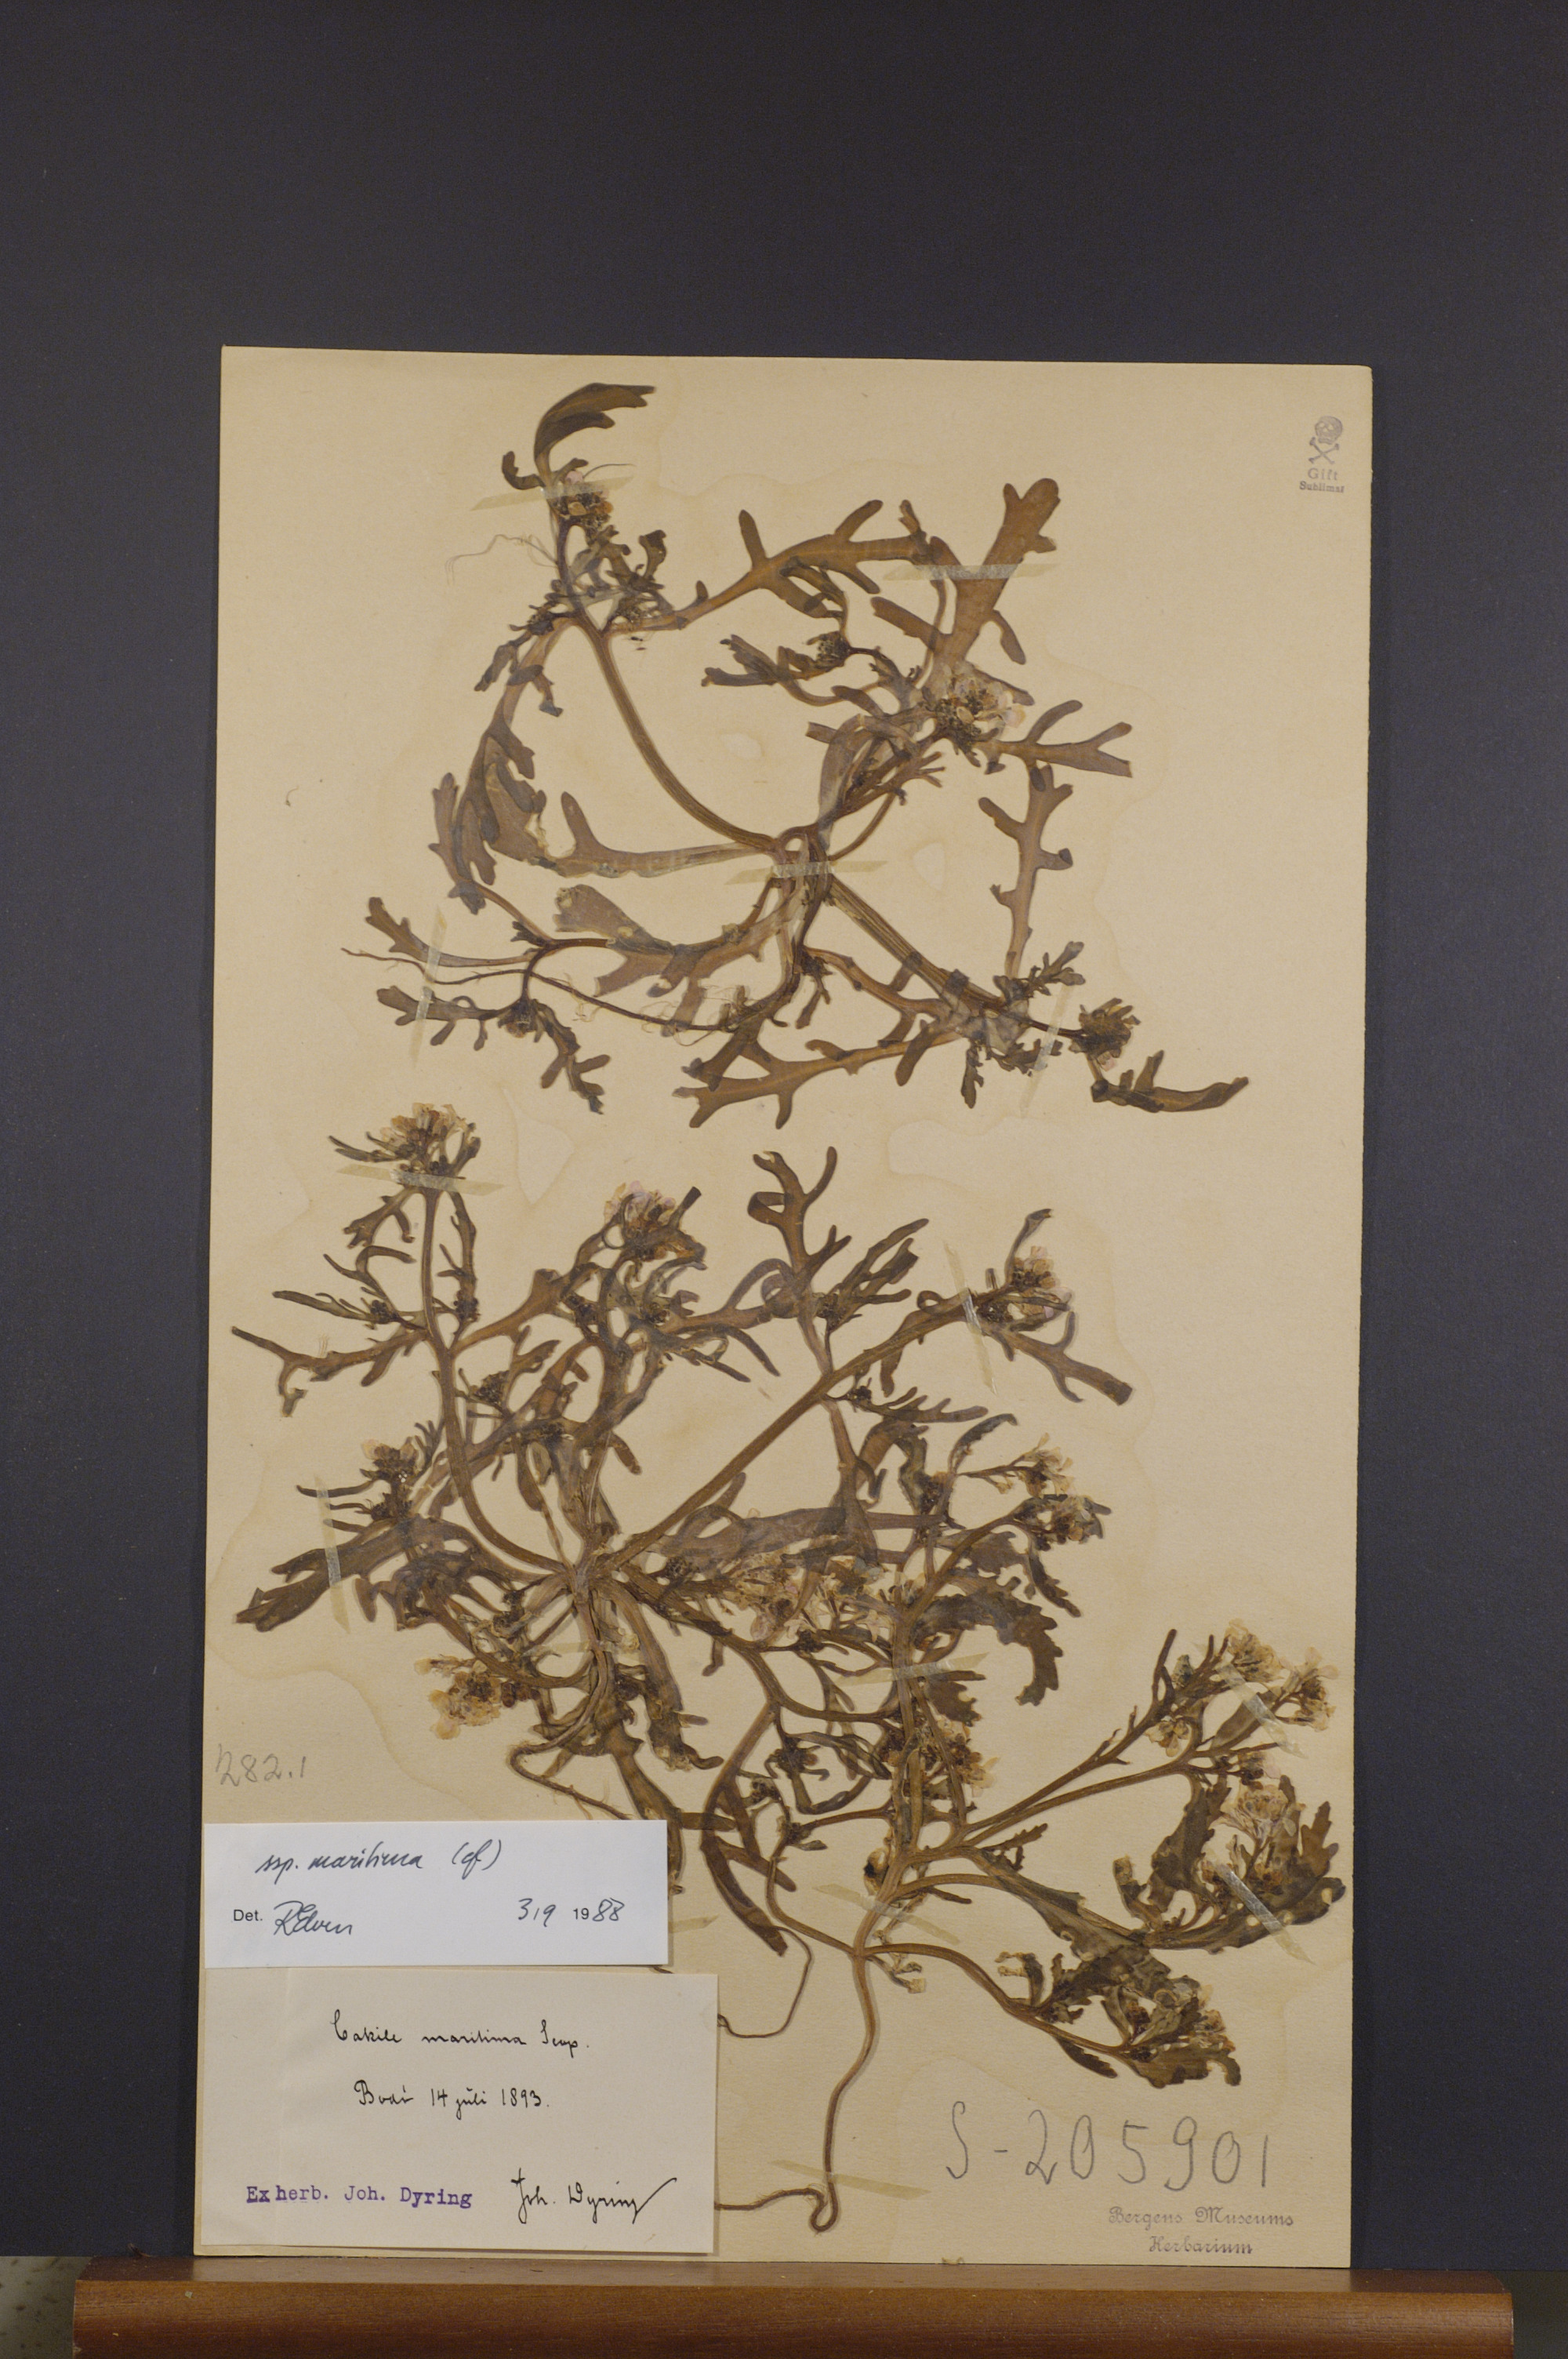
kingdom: Plantae
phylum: Tracheophyta
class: Magnoliopsida
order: Brassicales
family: Brassicaceae
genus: Cakile
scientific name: Cakile maritima
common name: Sea rocket
